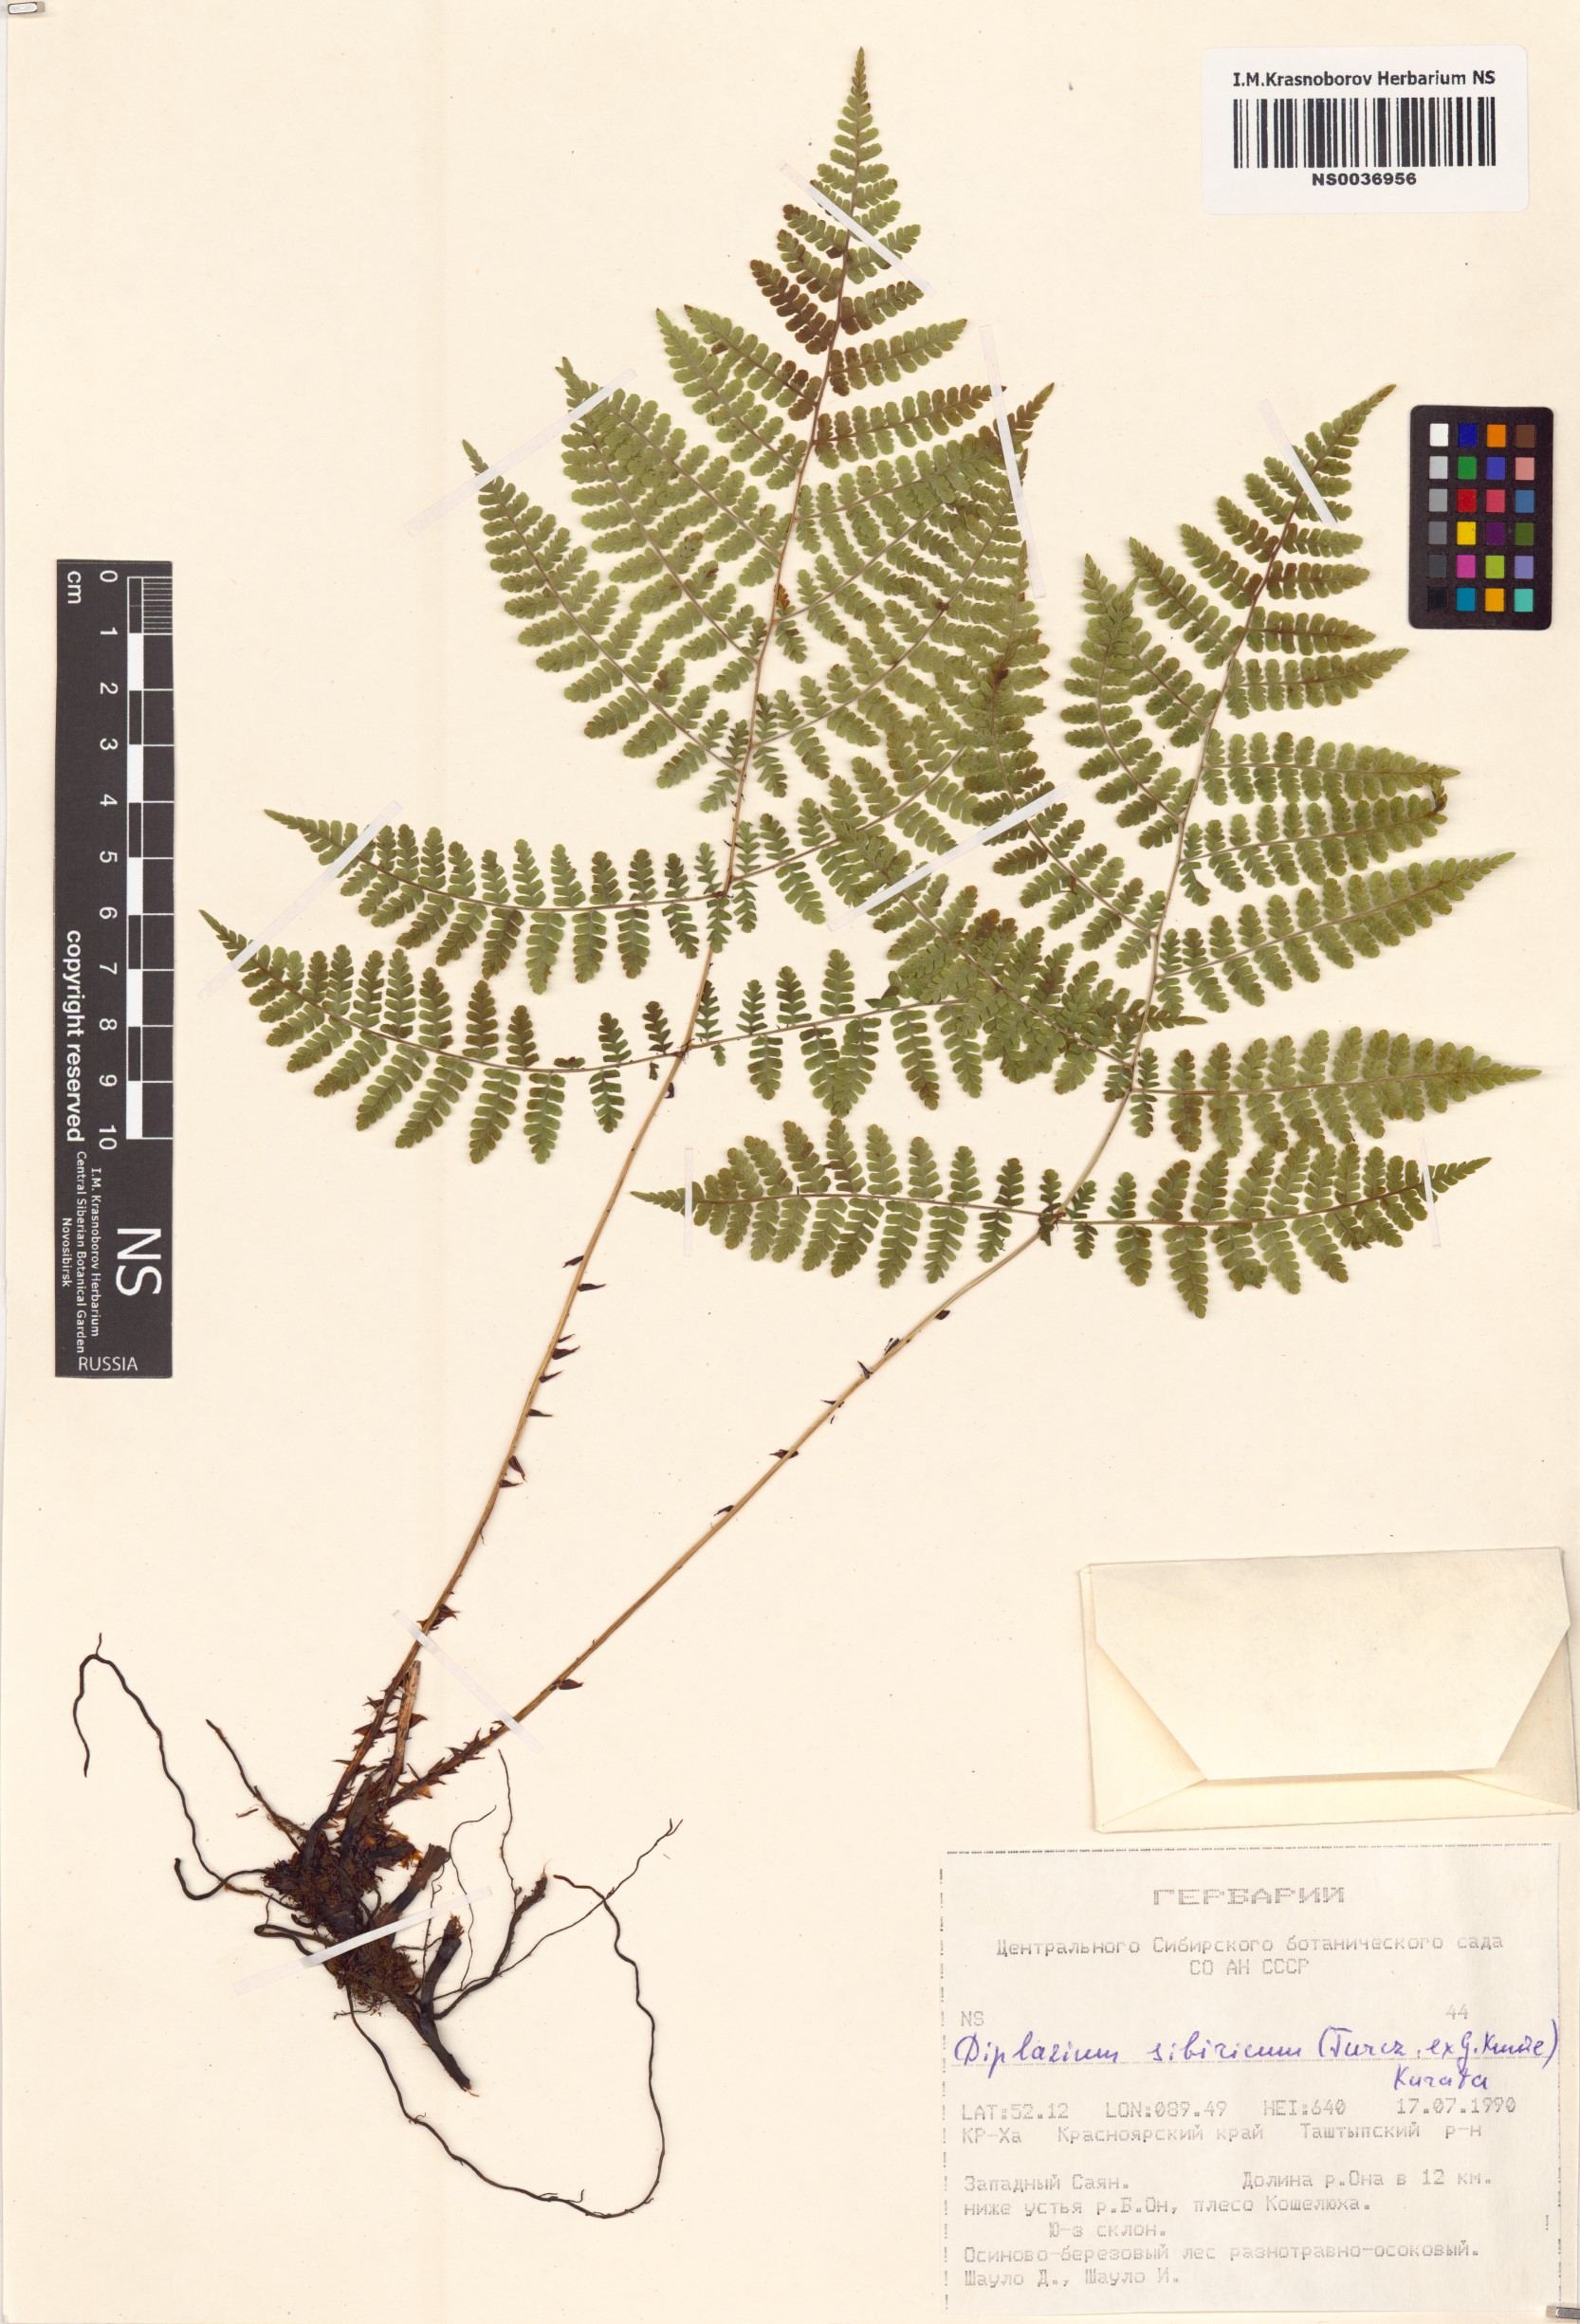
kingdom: Plantae
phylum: Tracheophyta
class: Polypodiopsida
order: Polypodiales
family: Athyriaceae
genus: Diplazium
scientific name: Diplazium sibiricum
